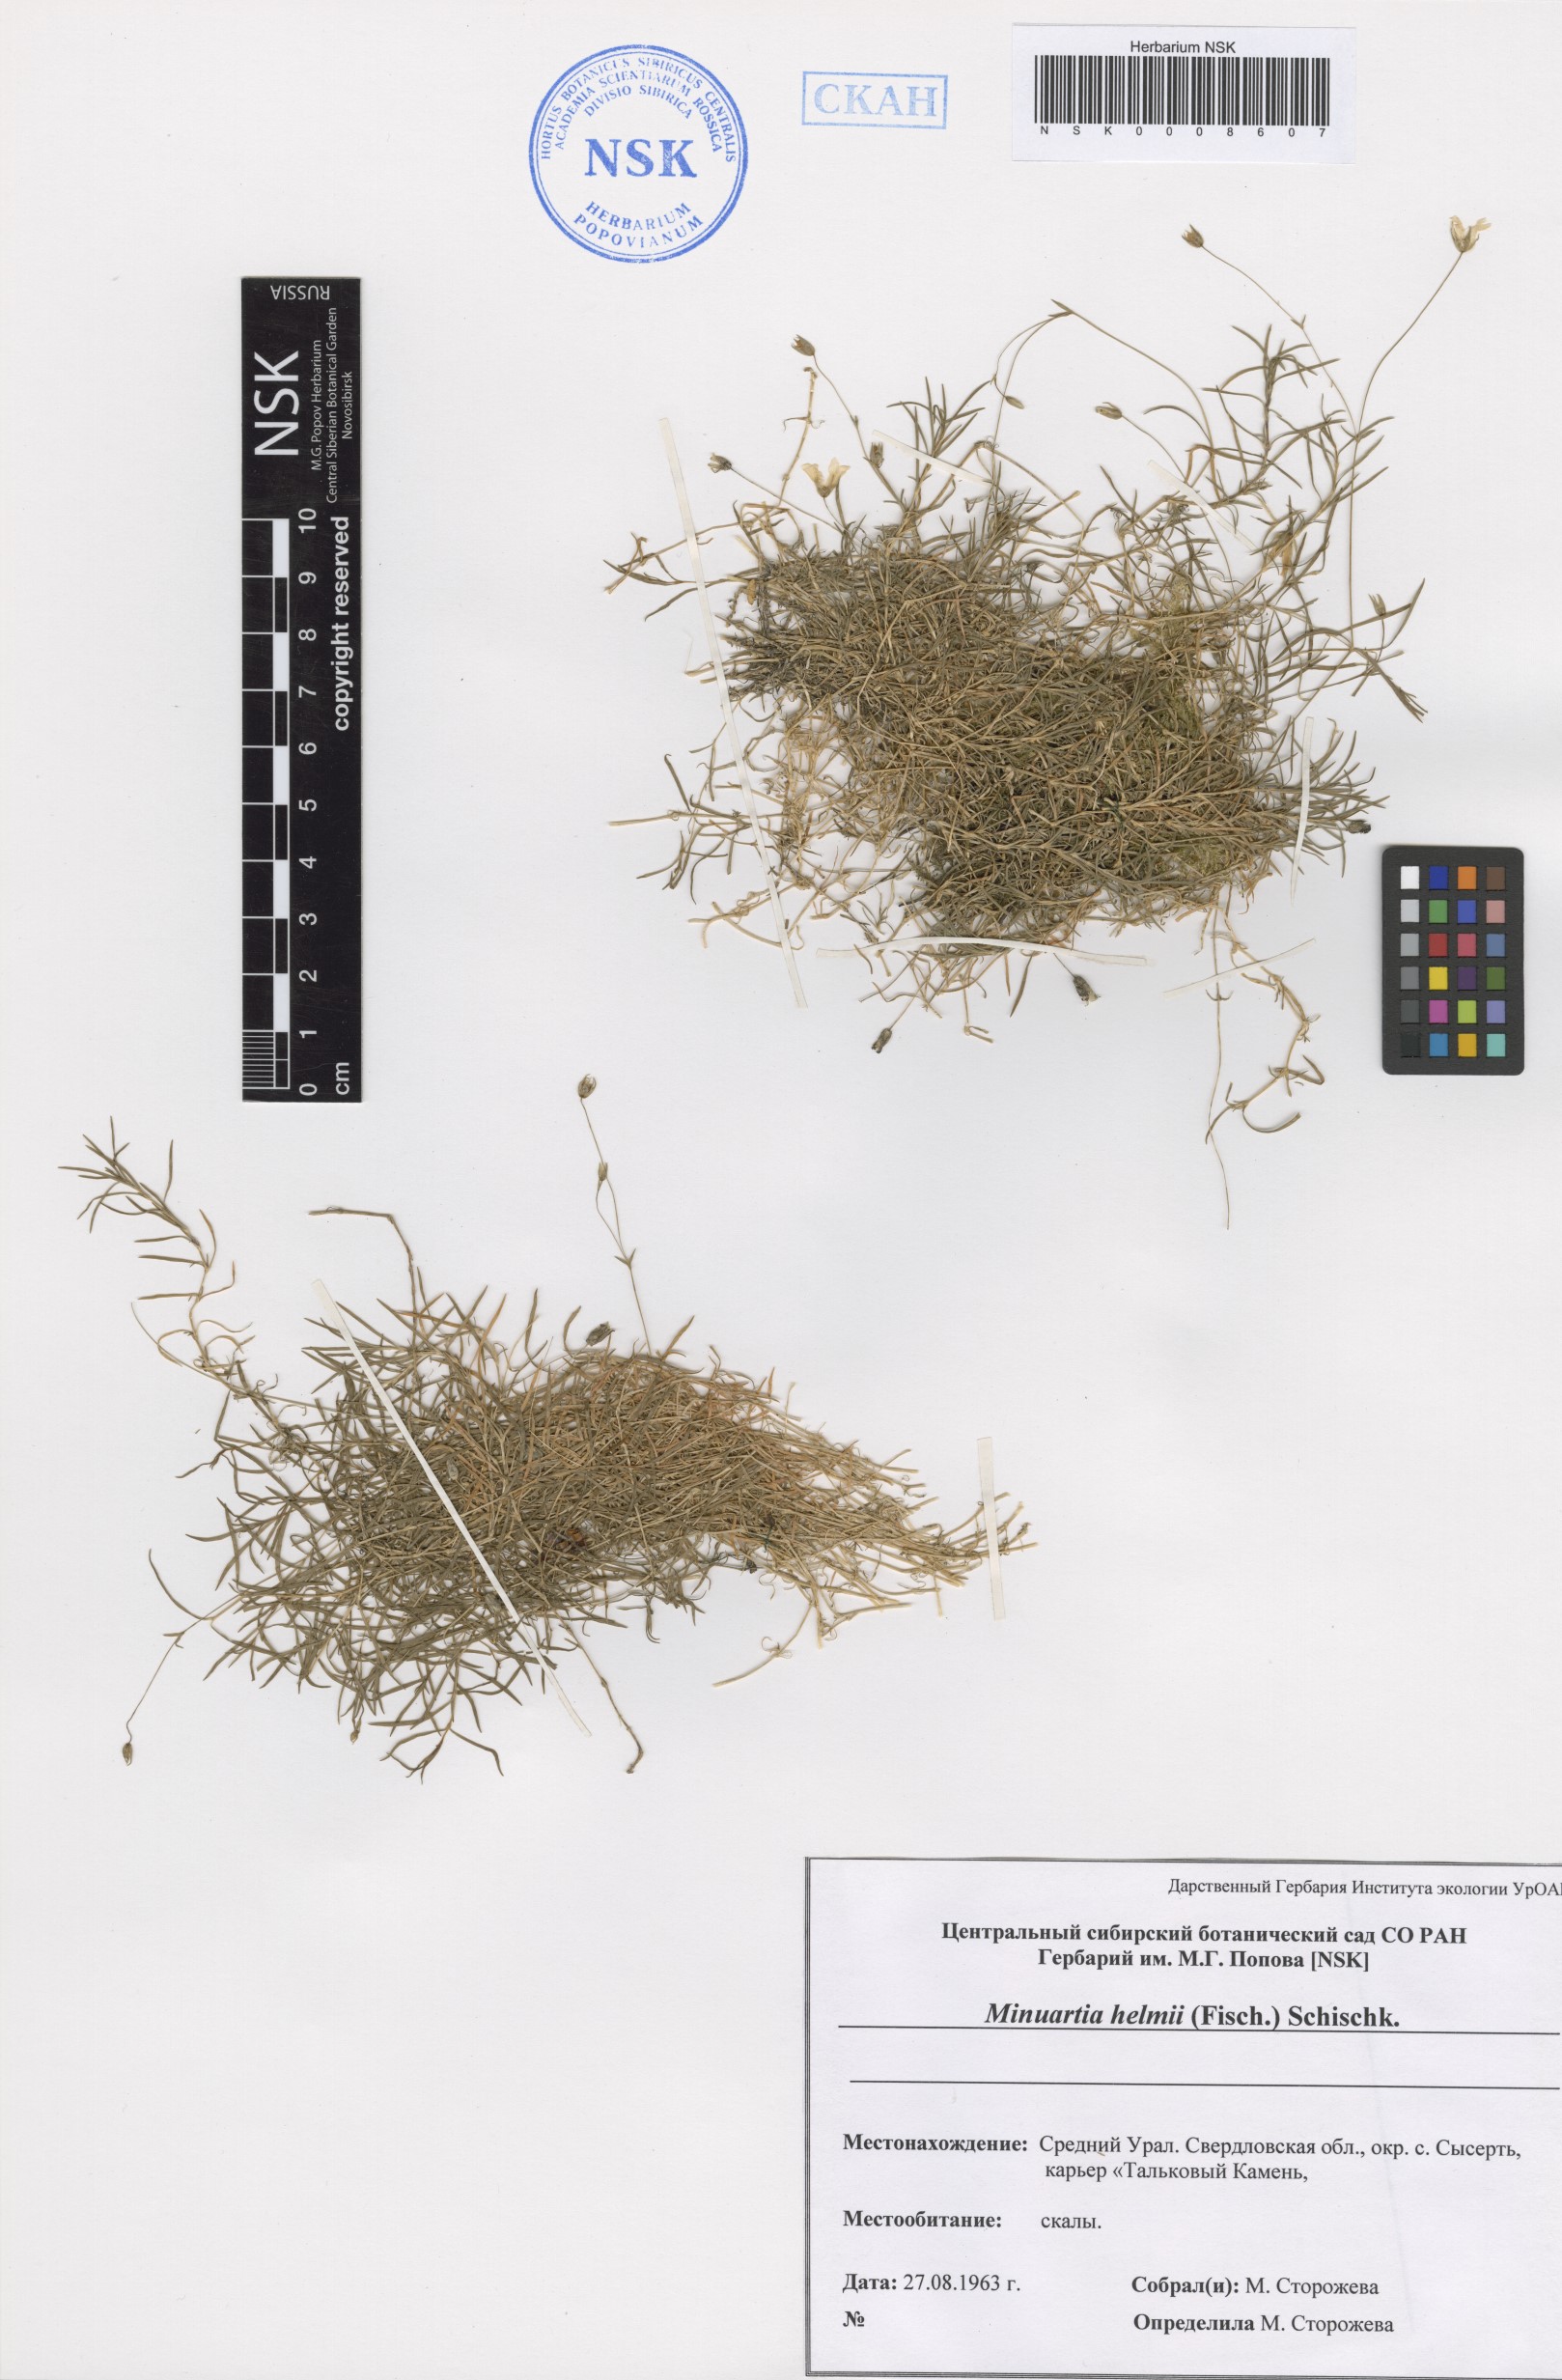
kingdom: Plantae
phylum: Tracheophyta
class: Magnoliopsida
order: Caryophyllales
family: Caryophyllaceae
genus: Sabulina
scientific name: Sabulina helmii
